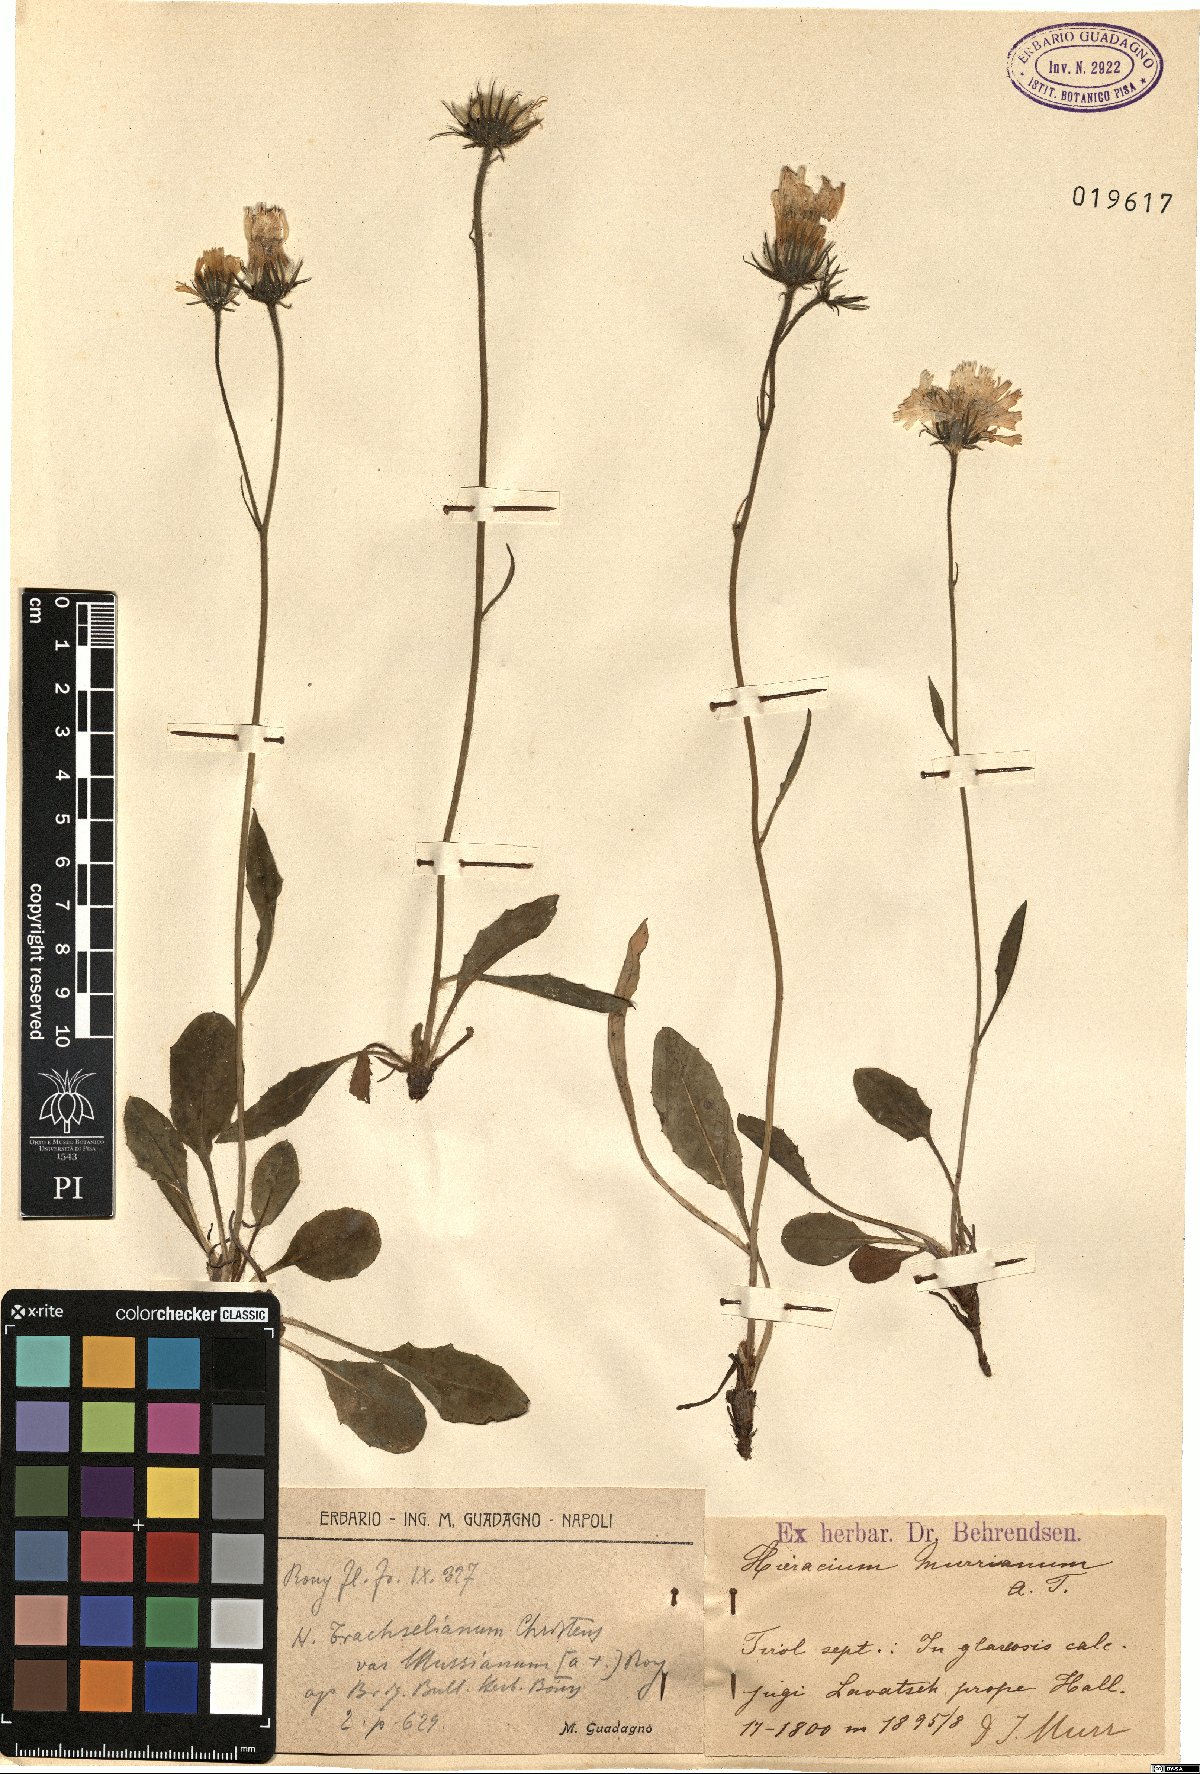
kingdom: Plantae
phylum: Tracheophyta
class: Magnoliopsida
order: Asterales
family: Asteraceae
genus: Hieracium
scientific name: Hieracium pallescens
